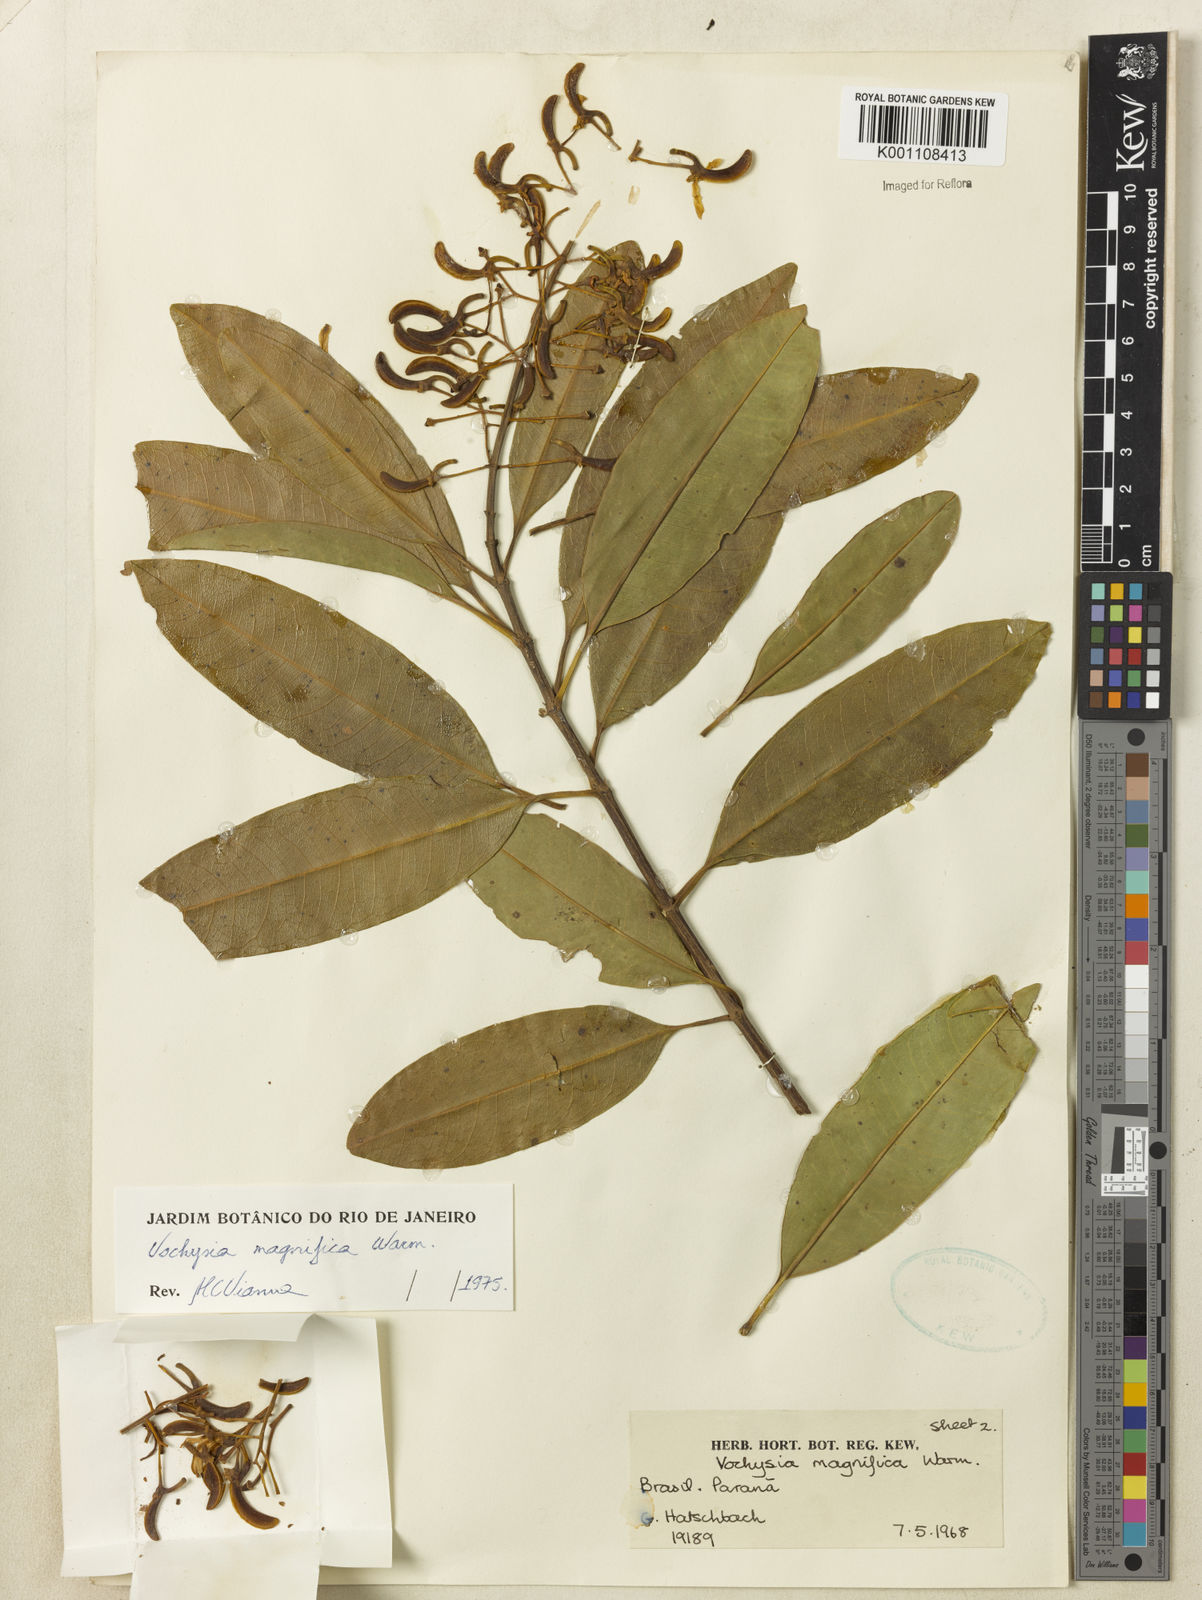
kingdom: Plantae
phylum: Tracheophyta
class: Magnoliopsida
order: Myrtales
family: Vochysiaceae
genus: Vochysia
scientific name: Vochysia magnifica
